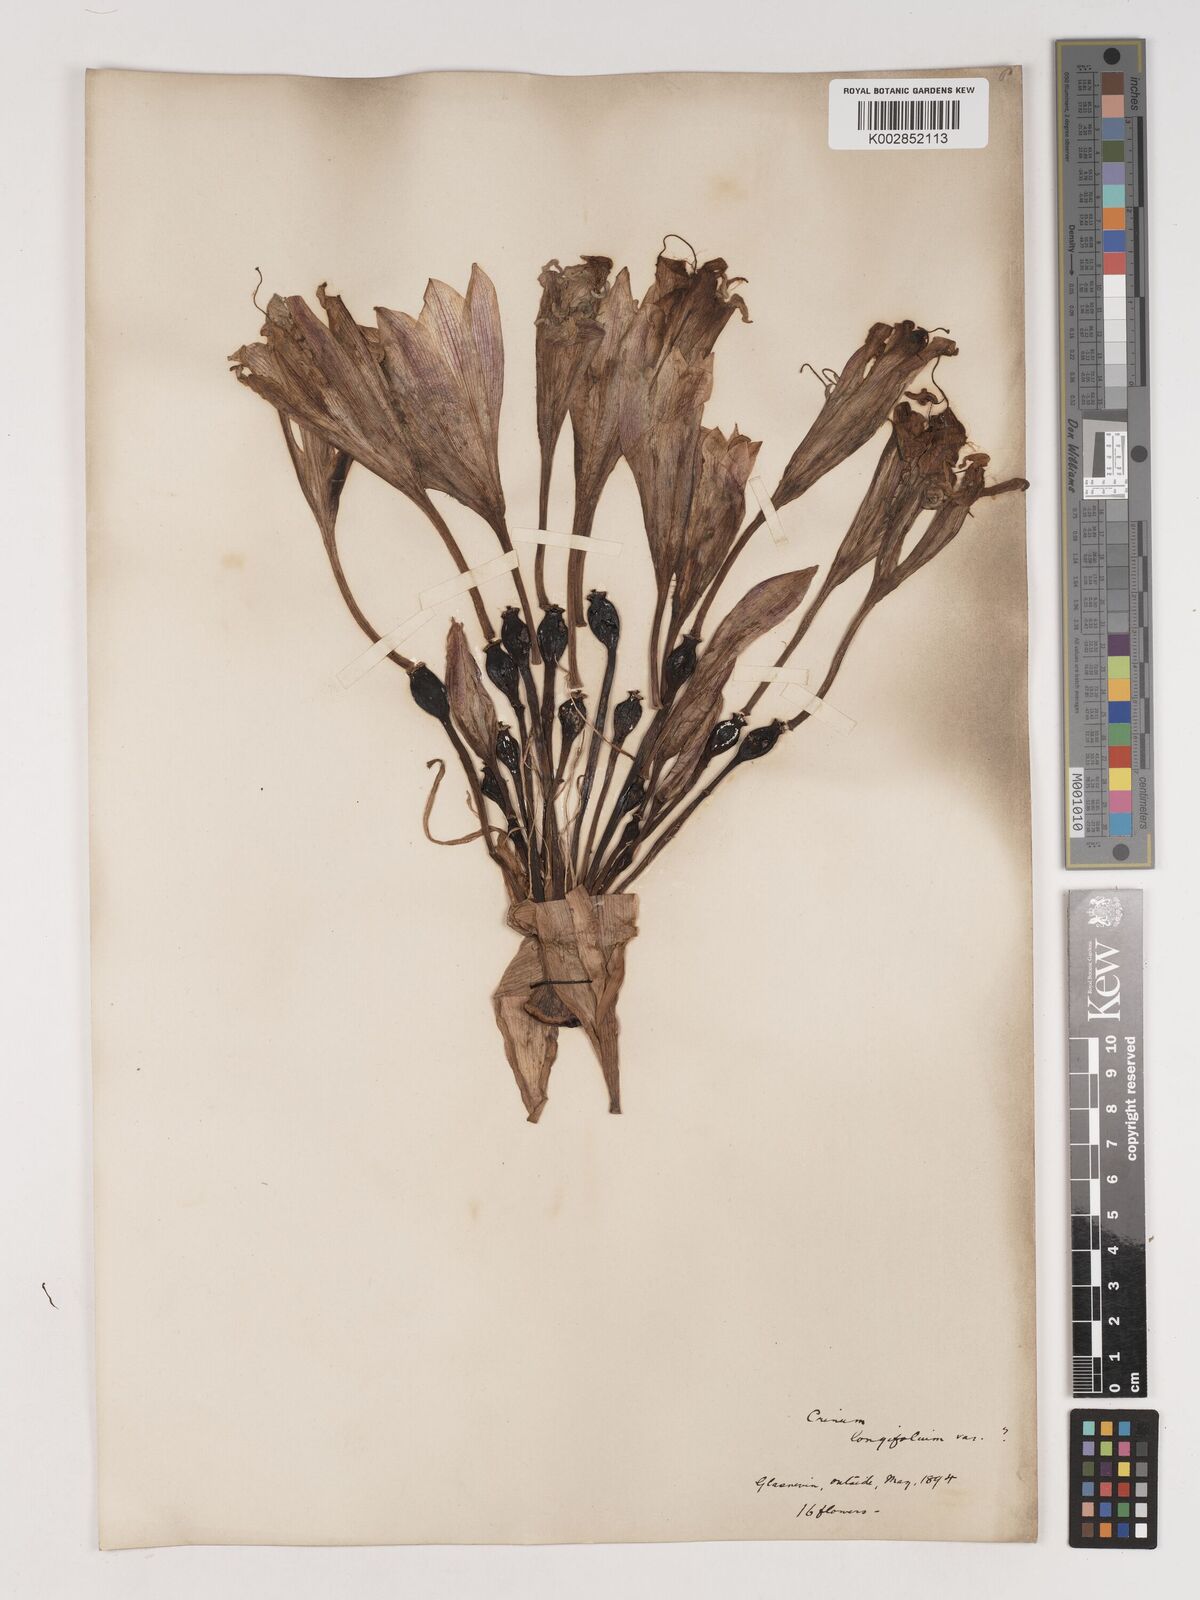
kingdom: Plantae
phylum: Tracheophyta
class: Liliopsida
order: Asparagales
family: Amaryllidaceae
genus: Ammocharis
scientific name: Ammocharis longifolia
